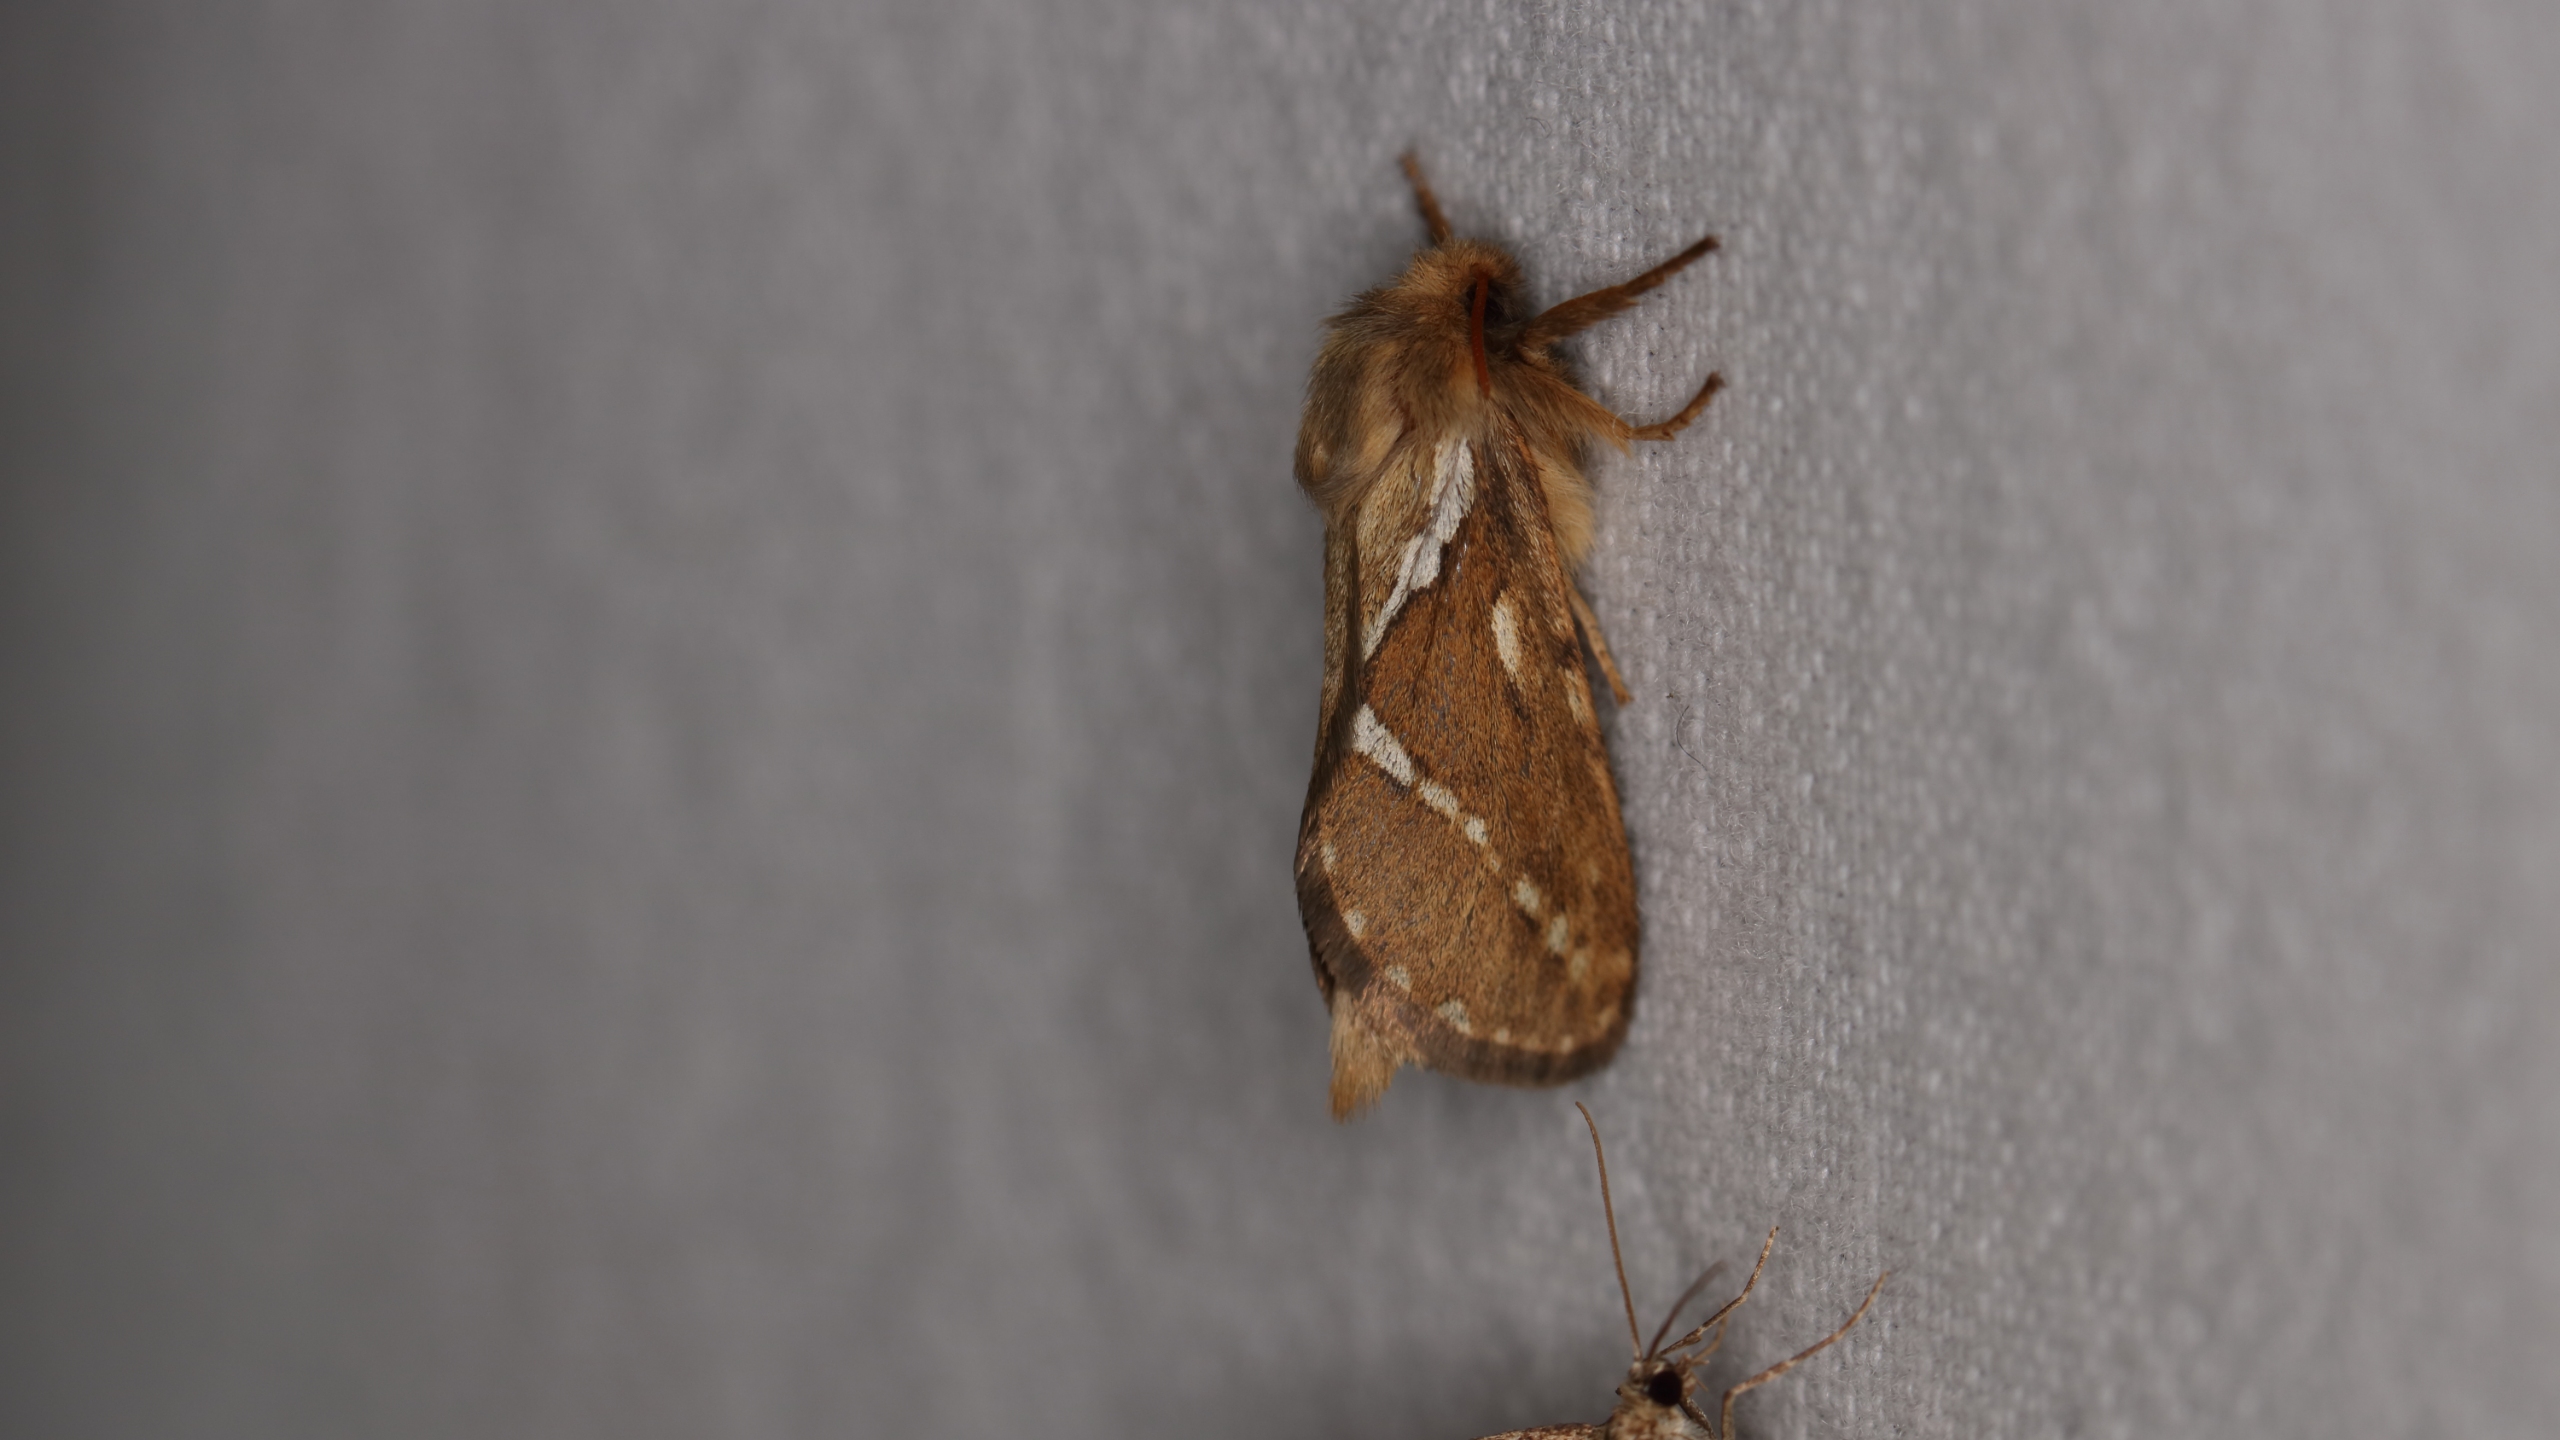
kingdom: Animalia
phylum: Arthropoda
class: Insecta
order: Lepidoptera
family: Hepialidae
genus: Korscheltellus
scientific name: Korscheltellus lupulina
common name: Konvalrodæder
